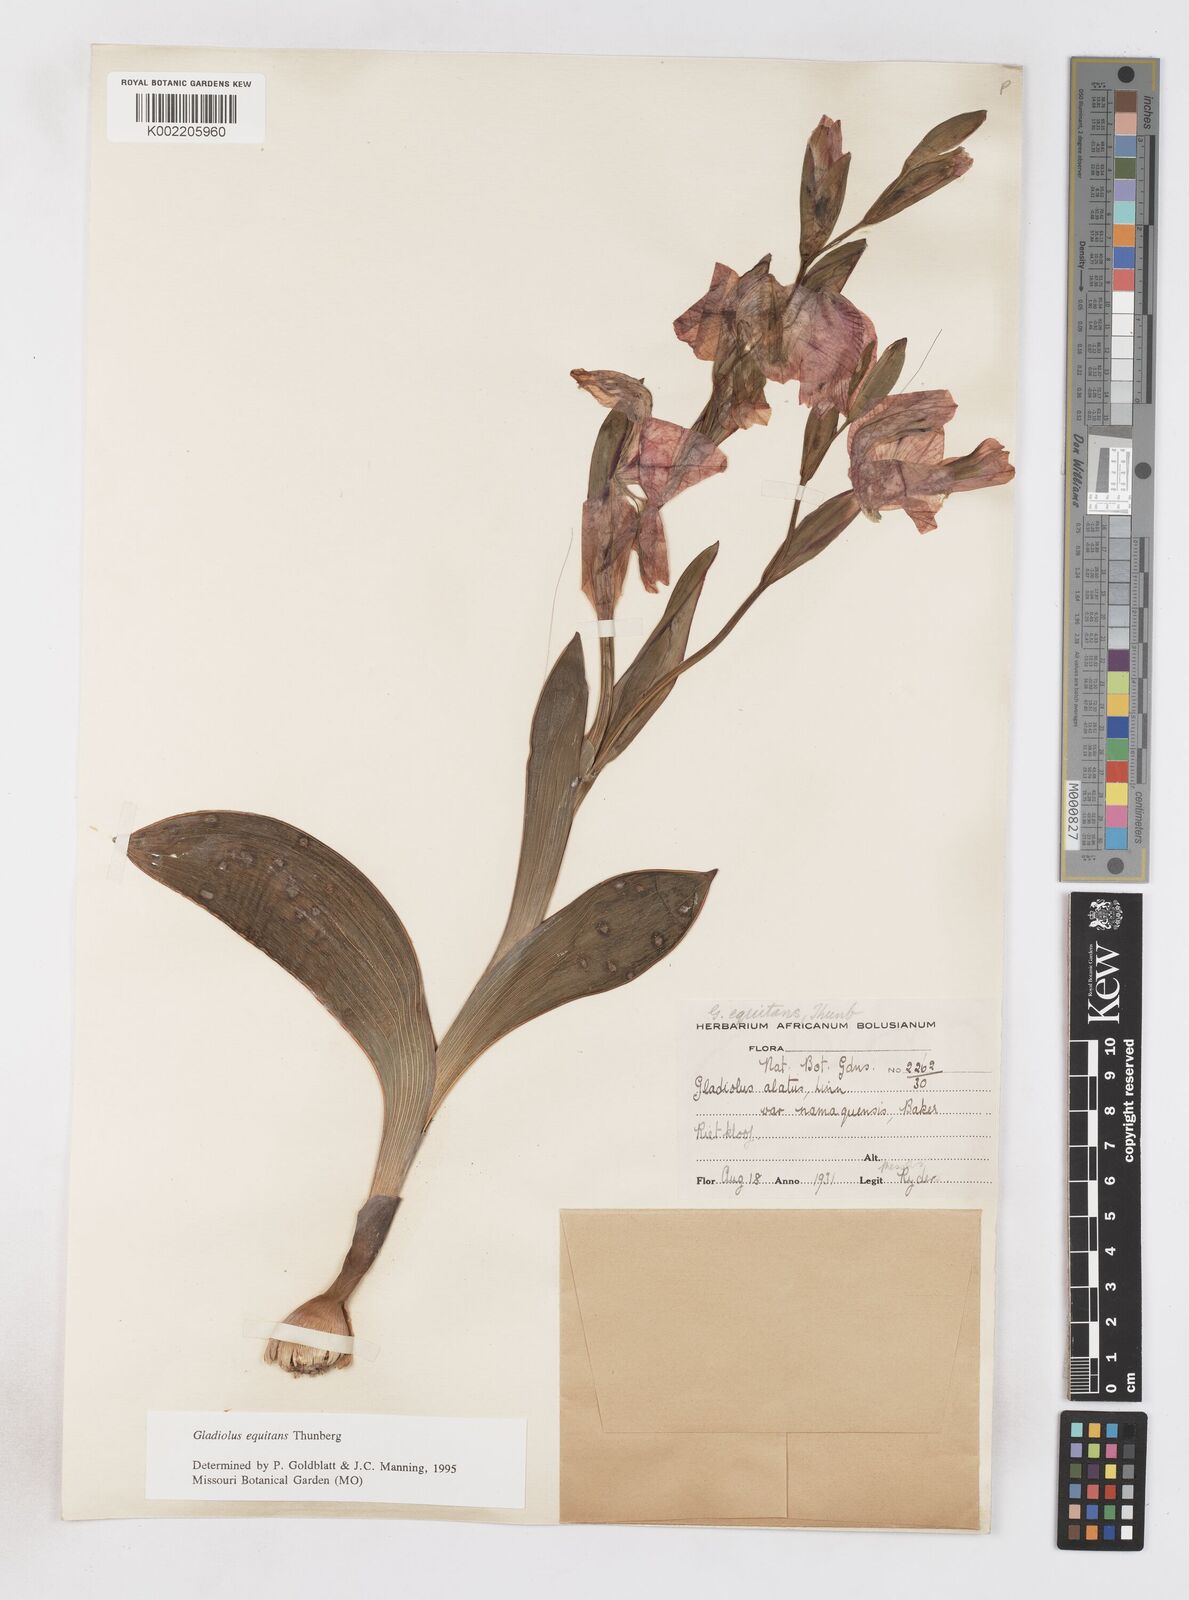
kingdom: Plantae
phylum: Tracheophyta
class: Liliopsida
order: Asparagales
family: Iridaceae
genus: Gladiolus
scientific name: Gladiolus equitans
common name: Large red kalkoentjie
